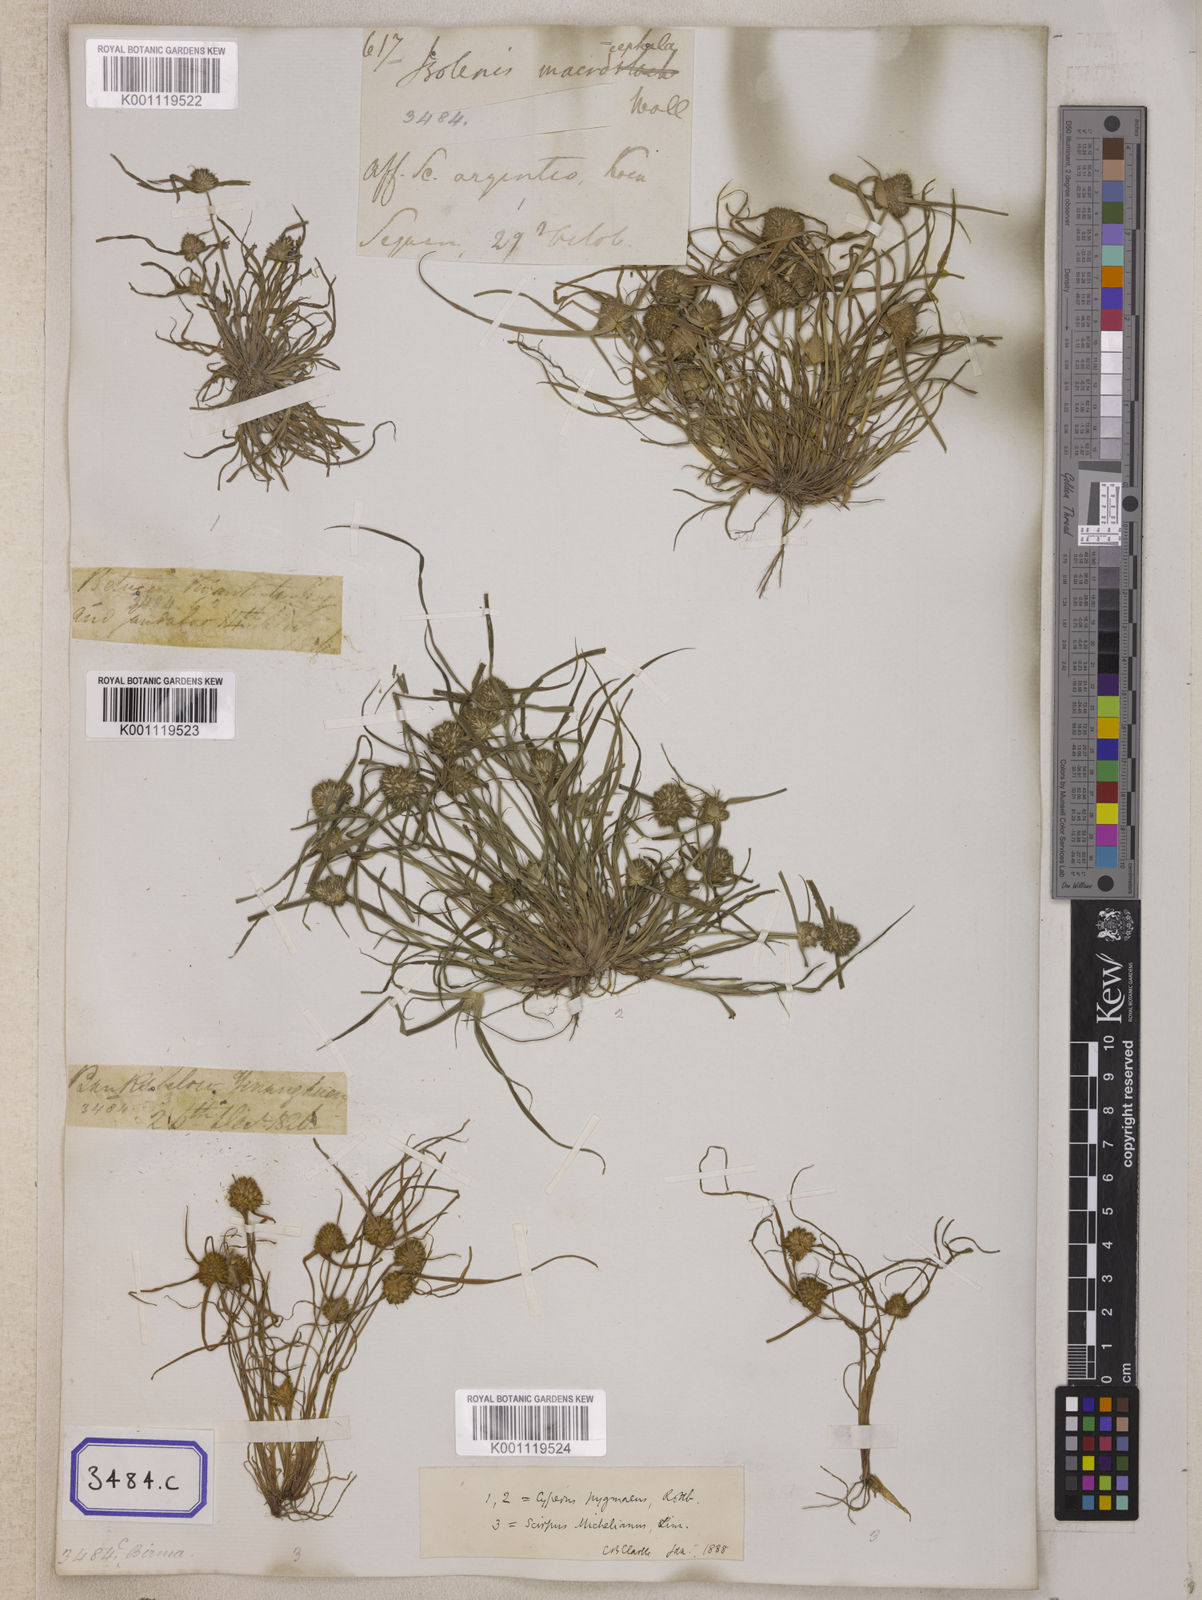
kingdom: Plantae
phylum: Tracheophyta
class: Liliopsida
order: Poales
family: Cyperaceae
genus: Isolepis
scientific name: Isolepis
